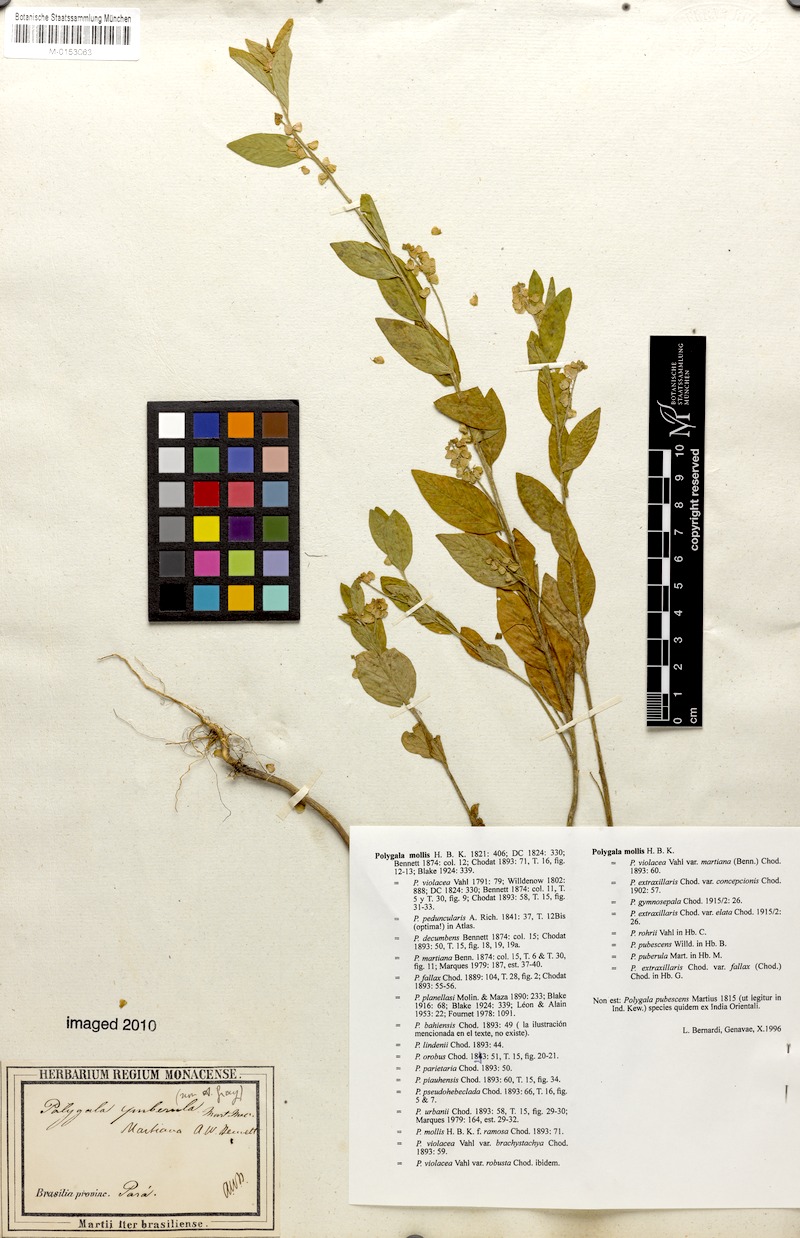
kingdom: Plantae
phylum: Tracheophyta
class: Magnoliopsida
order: Fabales
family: Polygalaceae
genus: Asemeia
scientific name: Asemeia martiana
